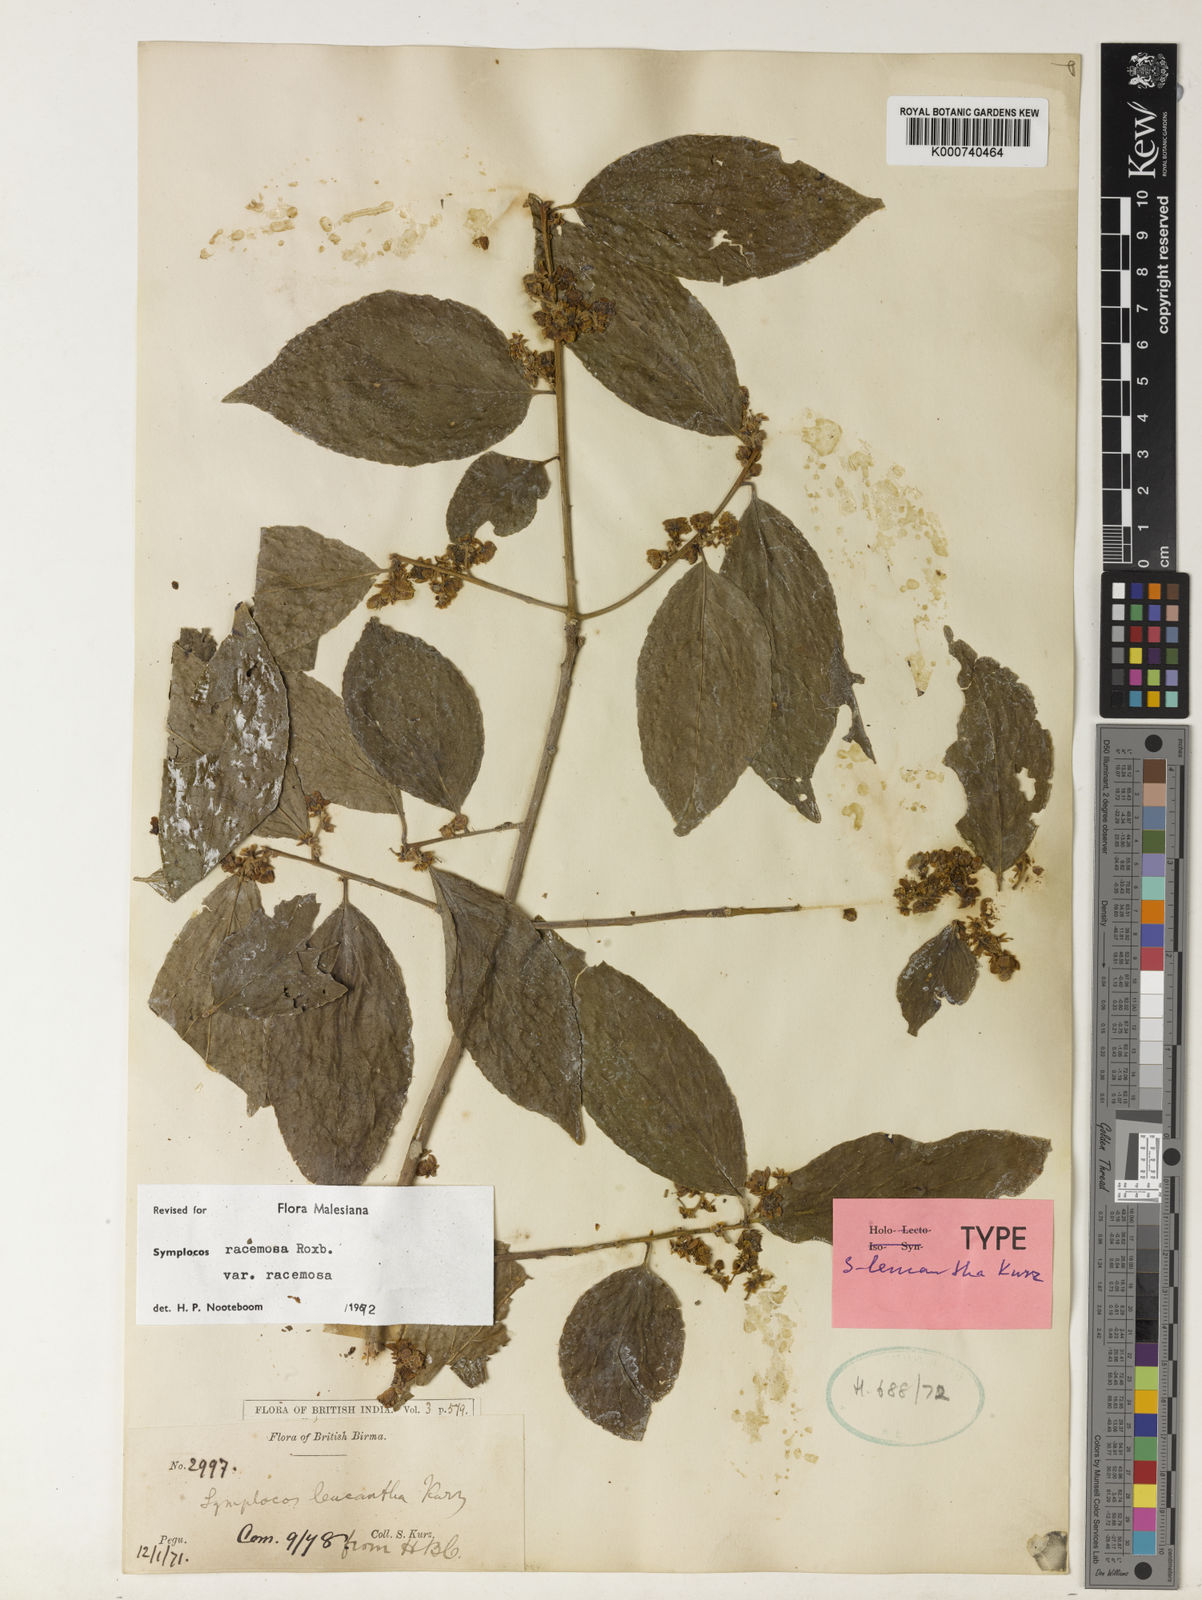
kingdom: Plantae
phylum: Tracheophyta
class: Magnoliopsida
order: Ericales
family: Symplocaceae
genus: Symplocos
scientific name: Symplocos racemosa
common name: Lodhtree
